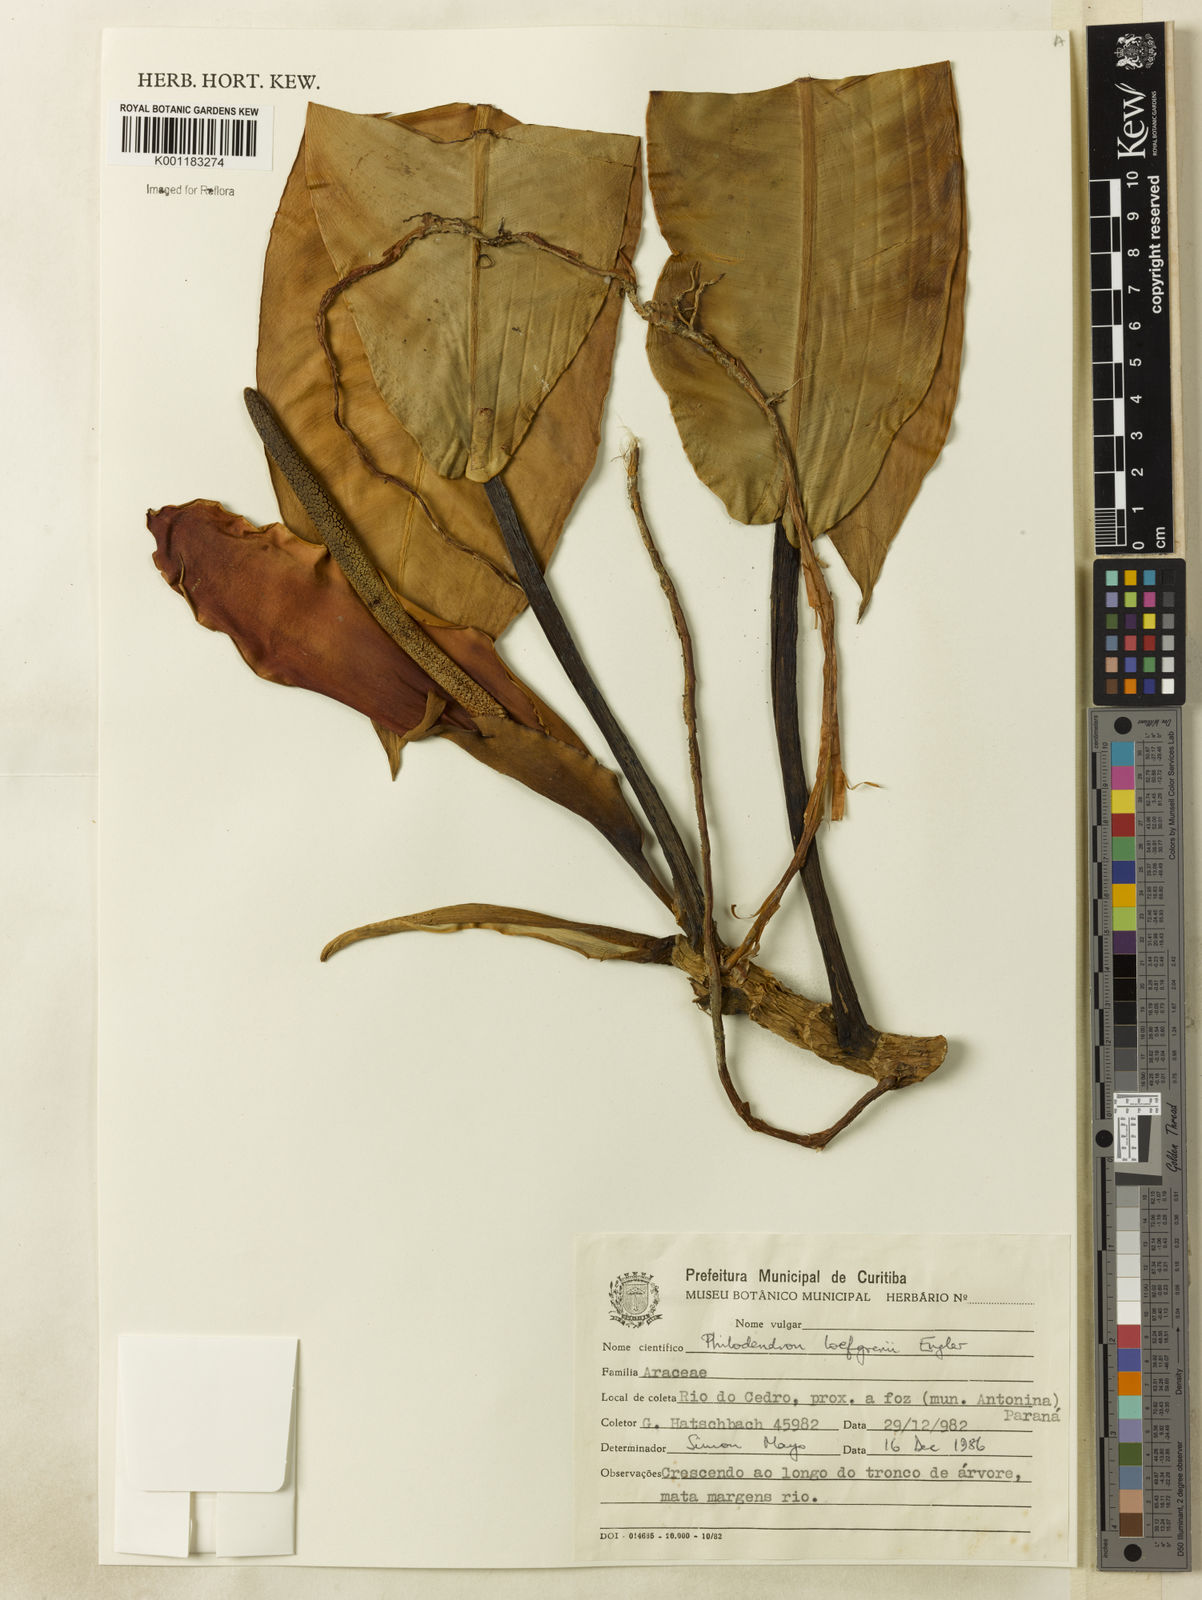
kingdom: Plantae
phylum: Tracheophyta
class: Liliopsida
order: Alismatales
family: Araceae
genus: Philodendron
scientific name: Philodendron loefgrenii
